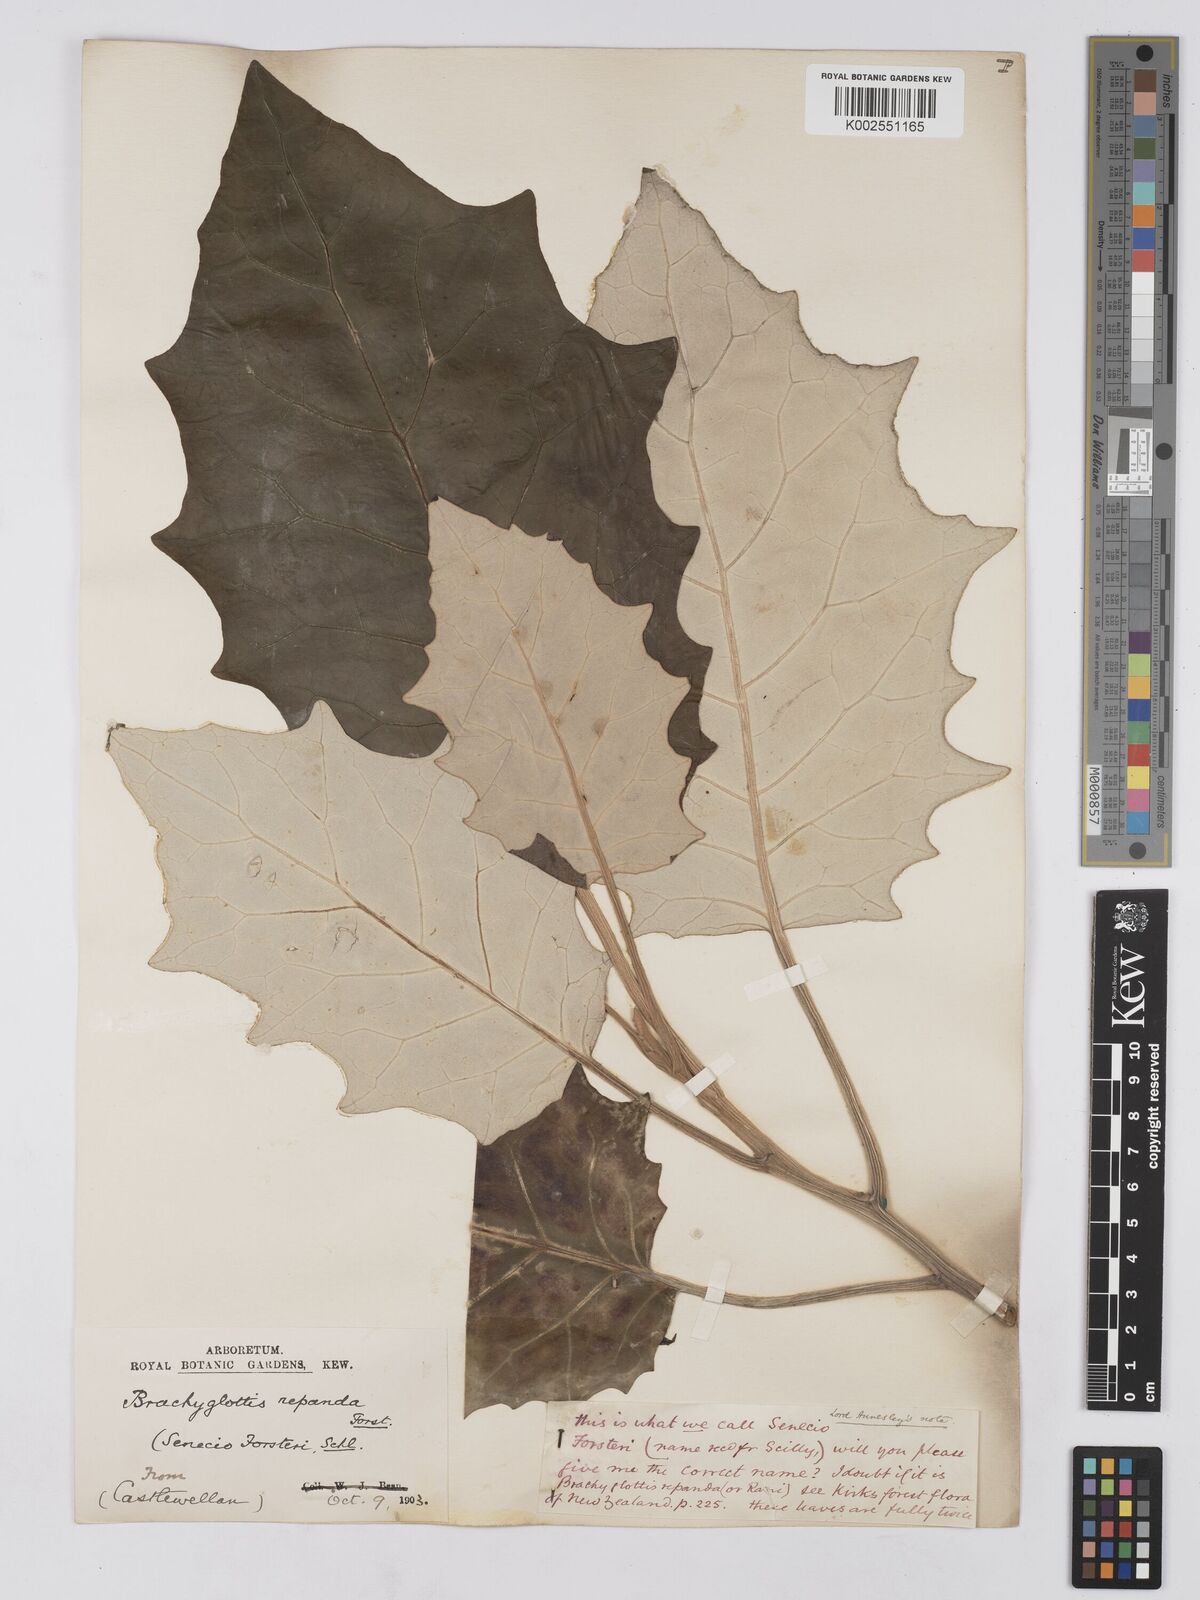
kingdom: Plantae
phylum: Tracheophyta
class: Magnoliopsida
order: Asterales
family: Asteraceae
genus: Brachyglottis
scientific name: Brachyglottis repanda
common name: Hedge ragwort
